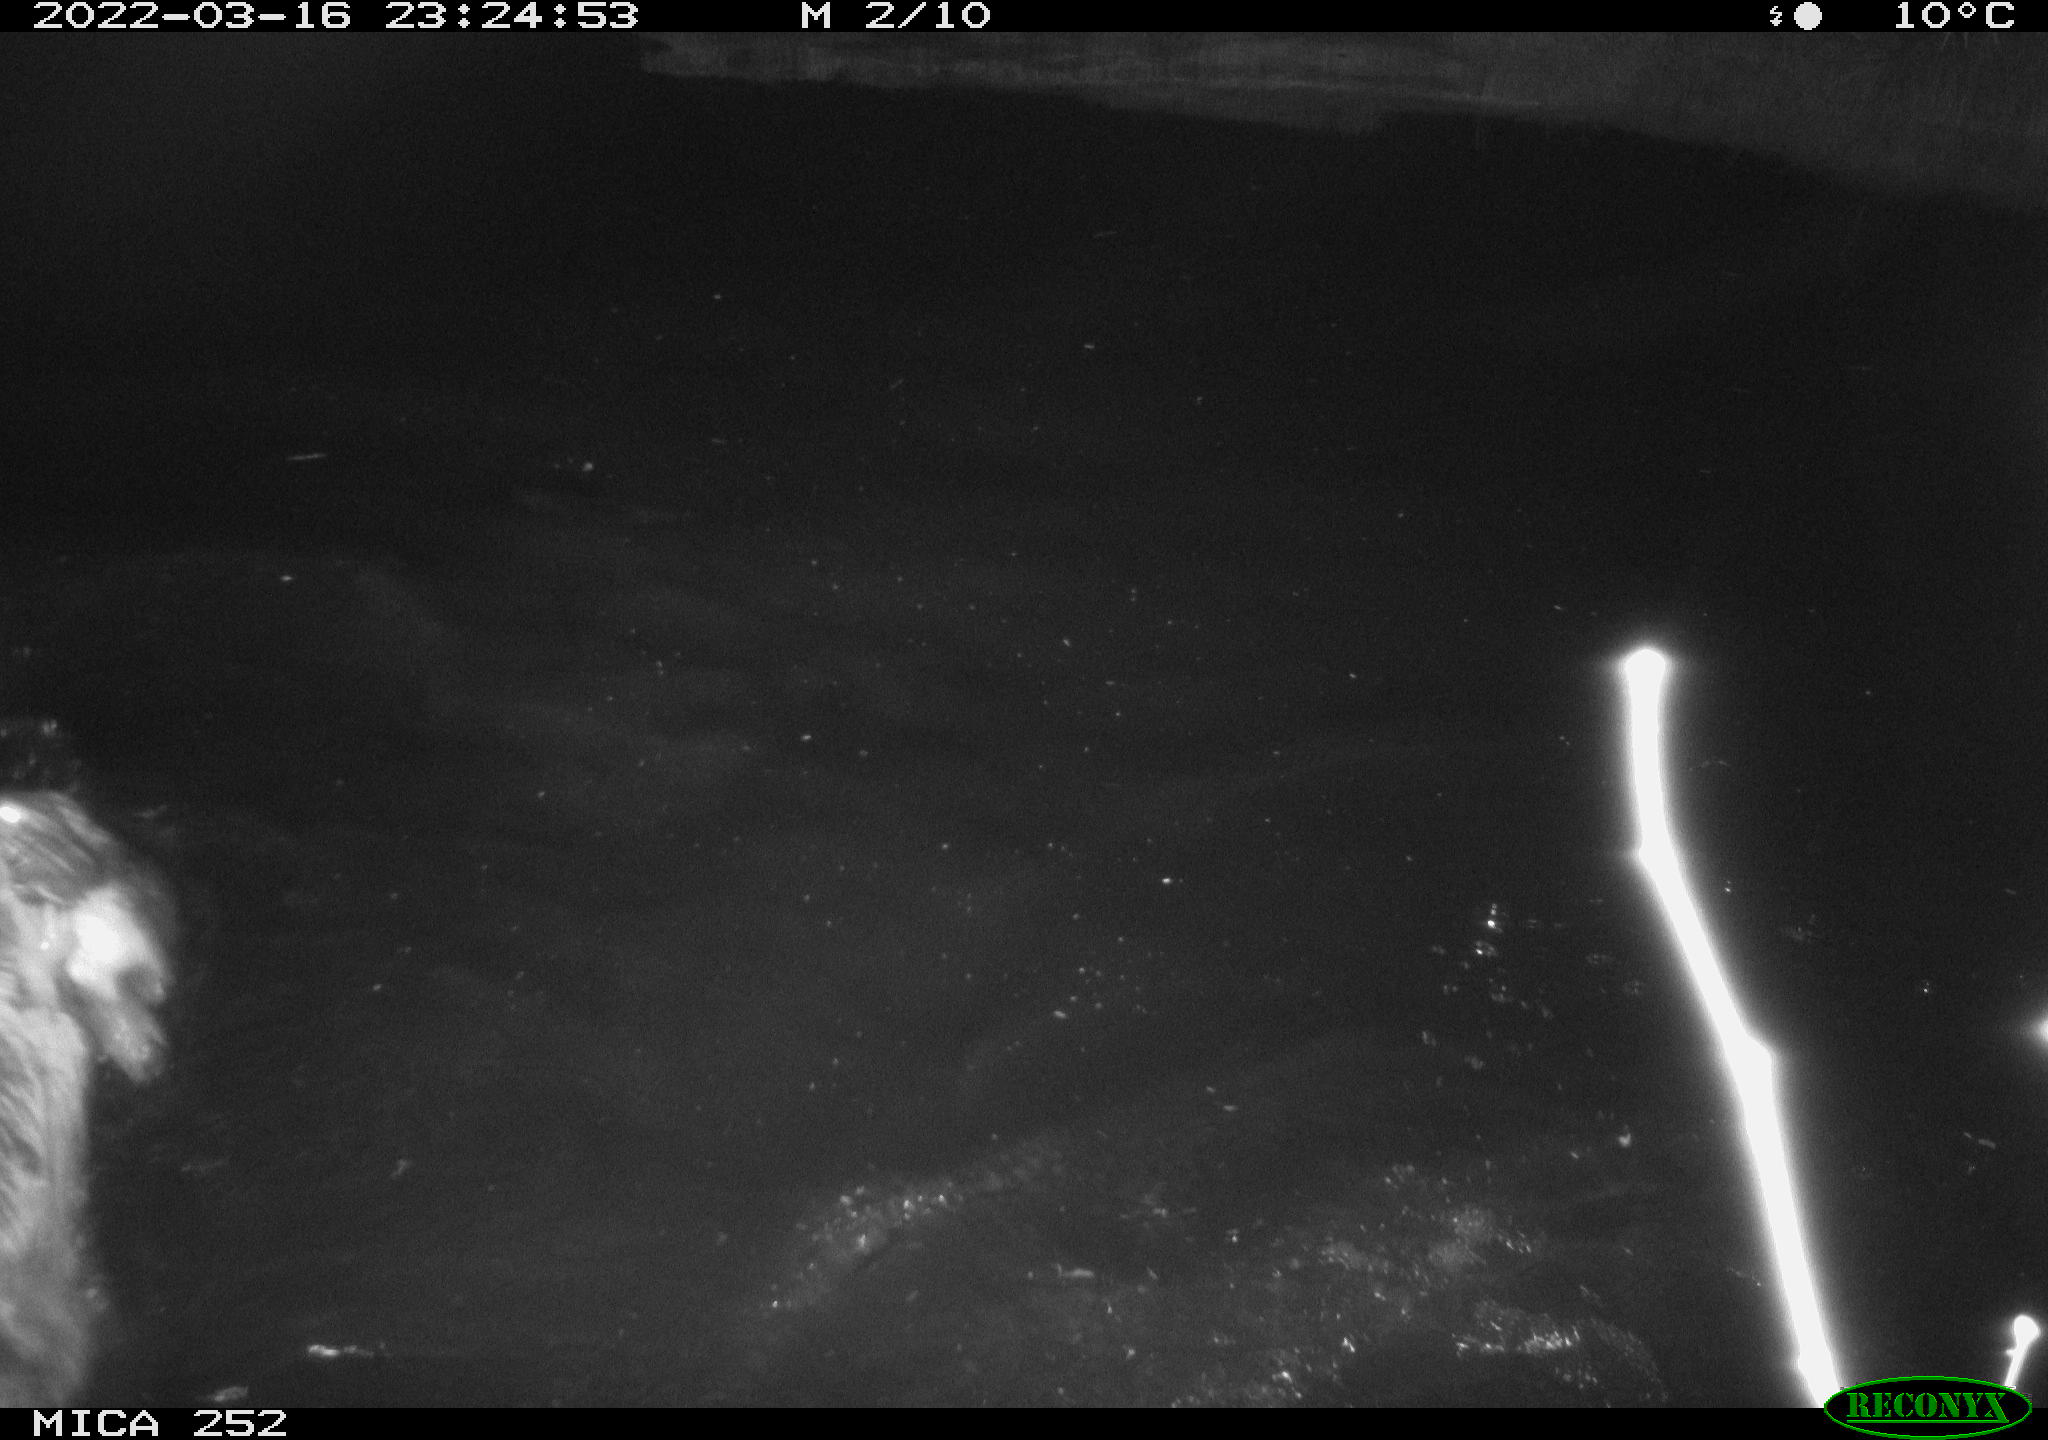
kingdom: Animalia
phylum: Chordata
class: Mammalia
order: Rodentia
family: Castoridae
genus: Castor
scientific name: Castor fiber
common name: Eurasian beaver
